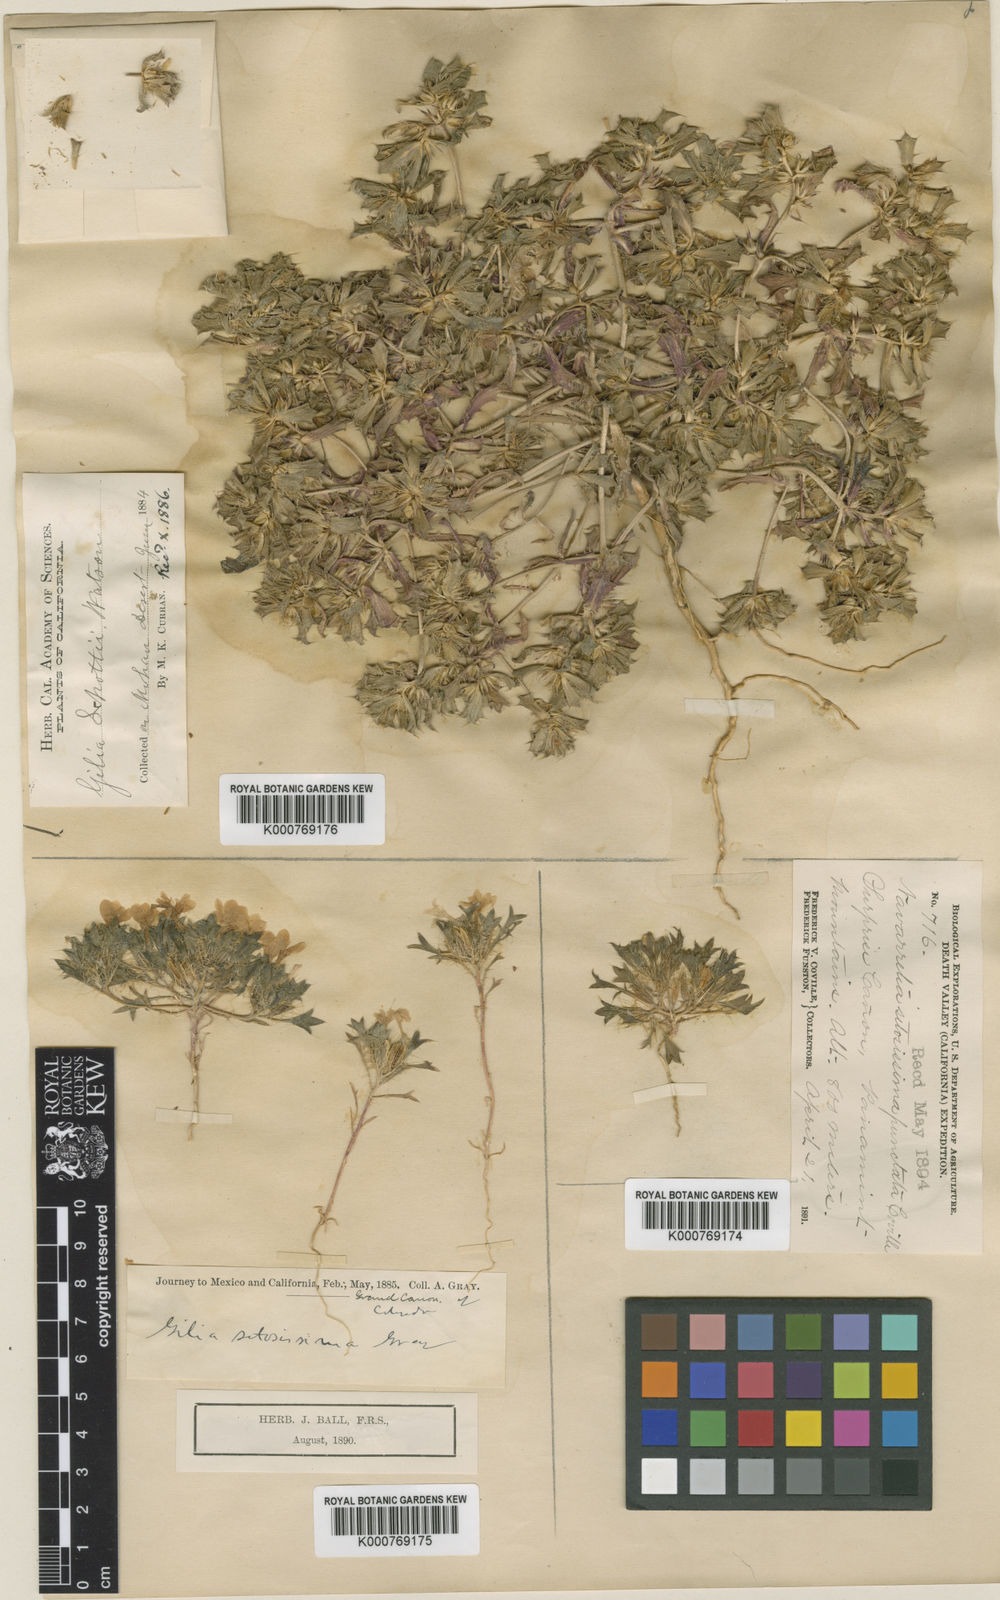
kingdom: Plantae
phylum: Tracheophyta
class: Magnoliopsida
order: Ericales
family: Polemoniaceae
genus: Langloisia
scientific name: Langloisia setosissima
